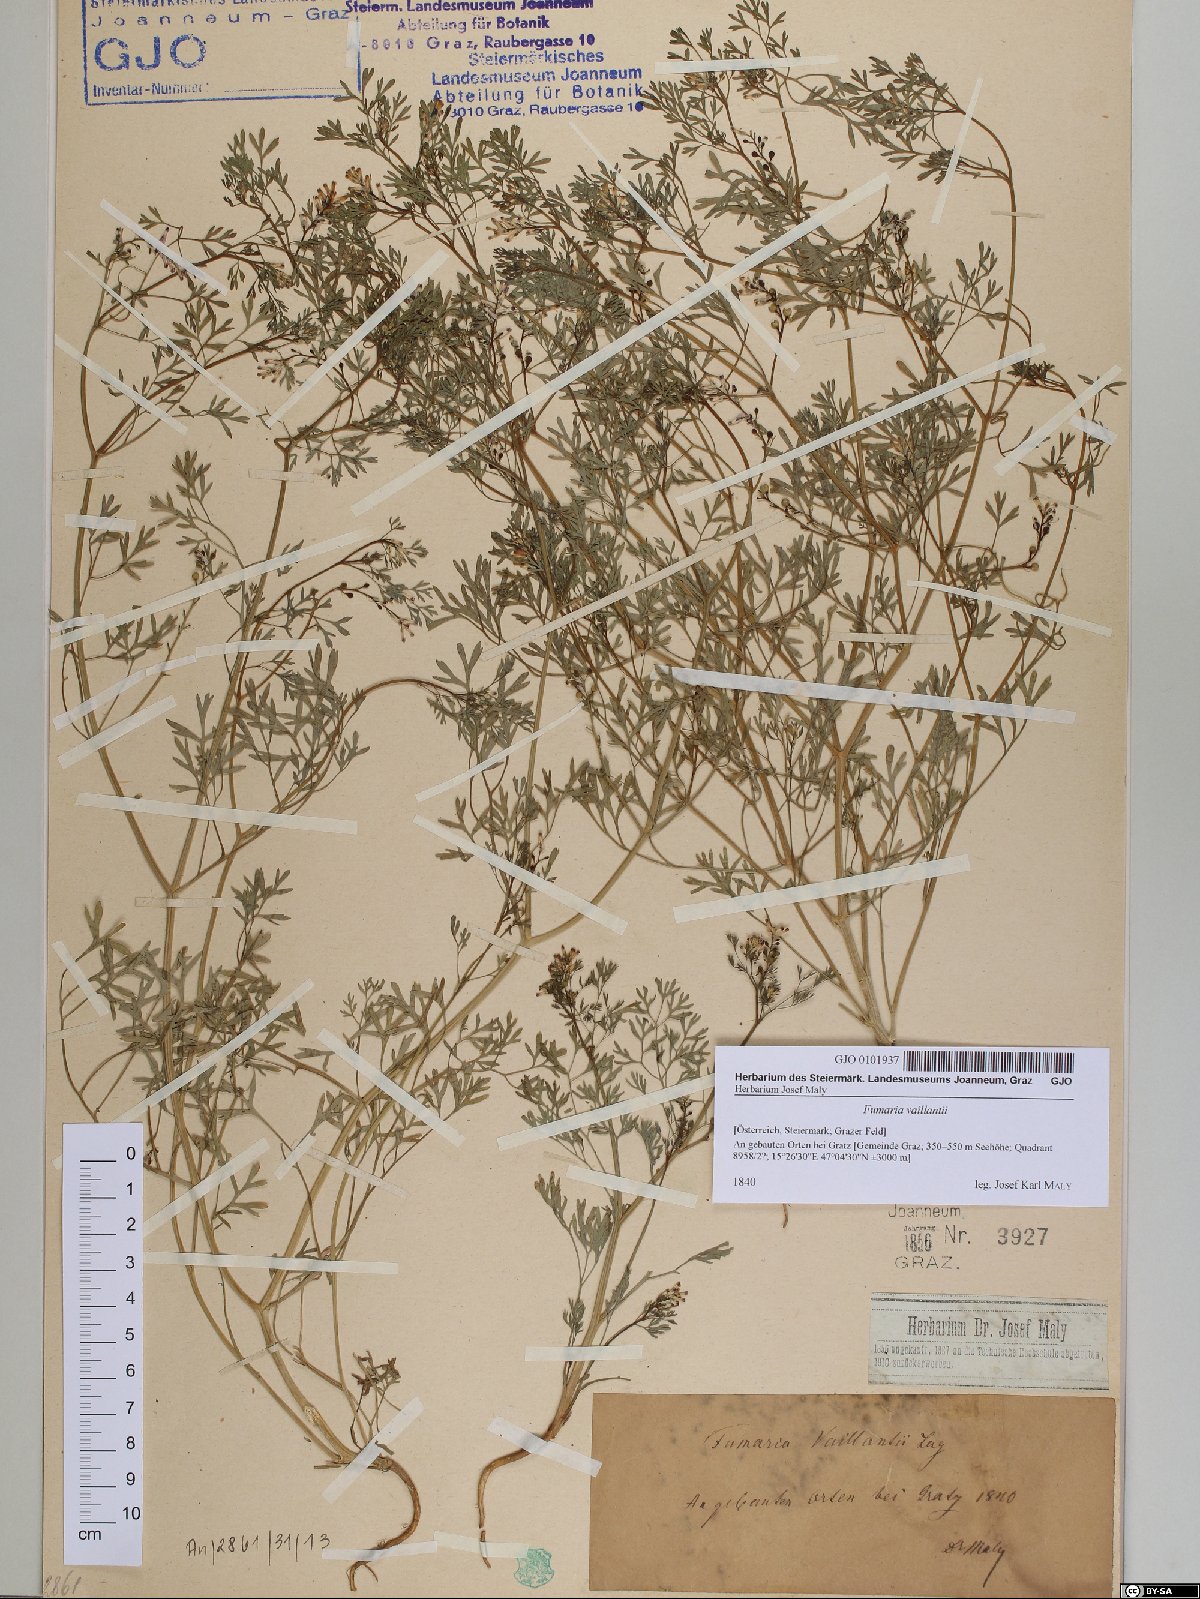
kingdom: Plantae
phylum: Tracheophyta
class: Magnoliopsida
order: Ranunculales
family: Papaveraceae
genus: Fumaria
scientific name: Fumaria vaillantii
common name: Few-flowered fumitory
